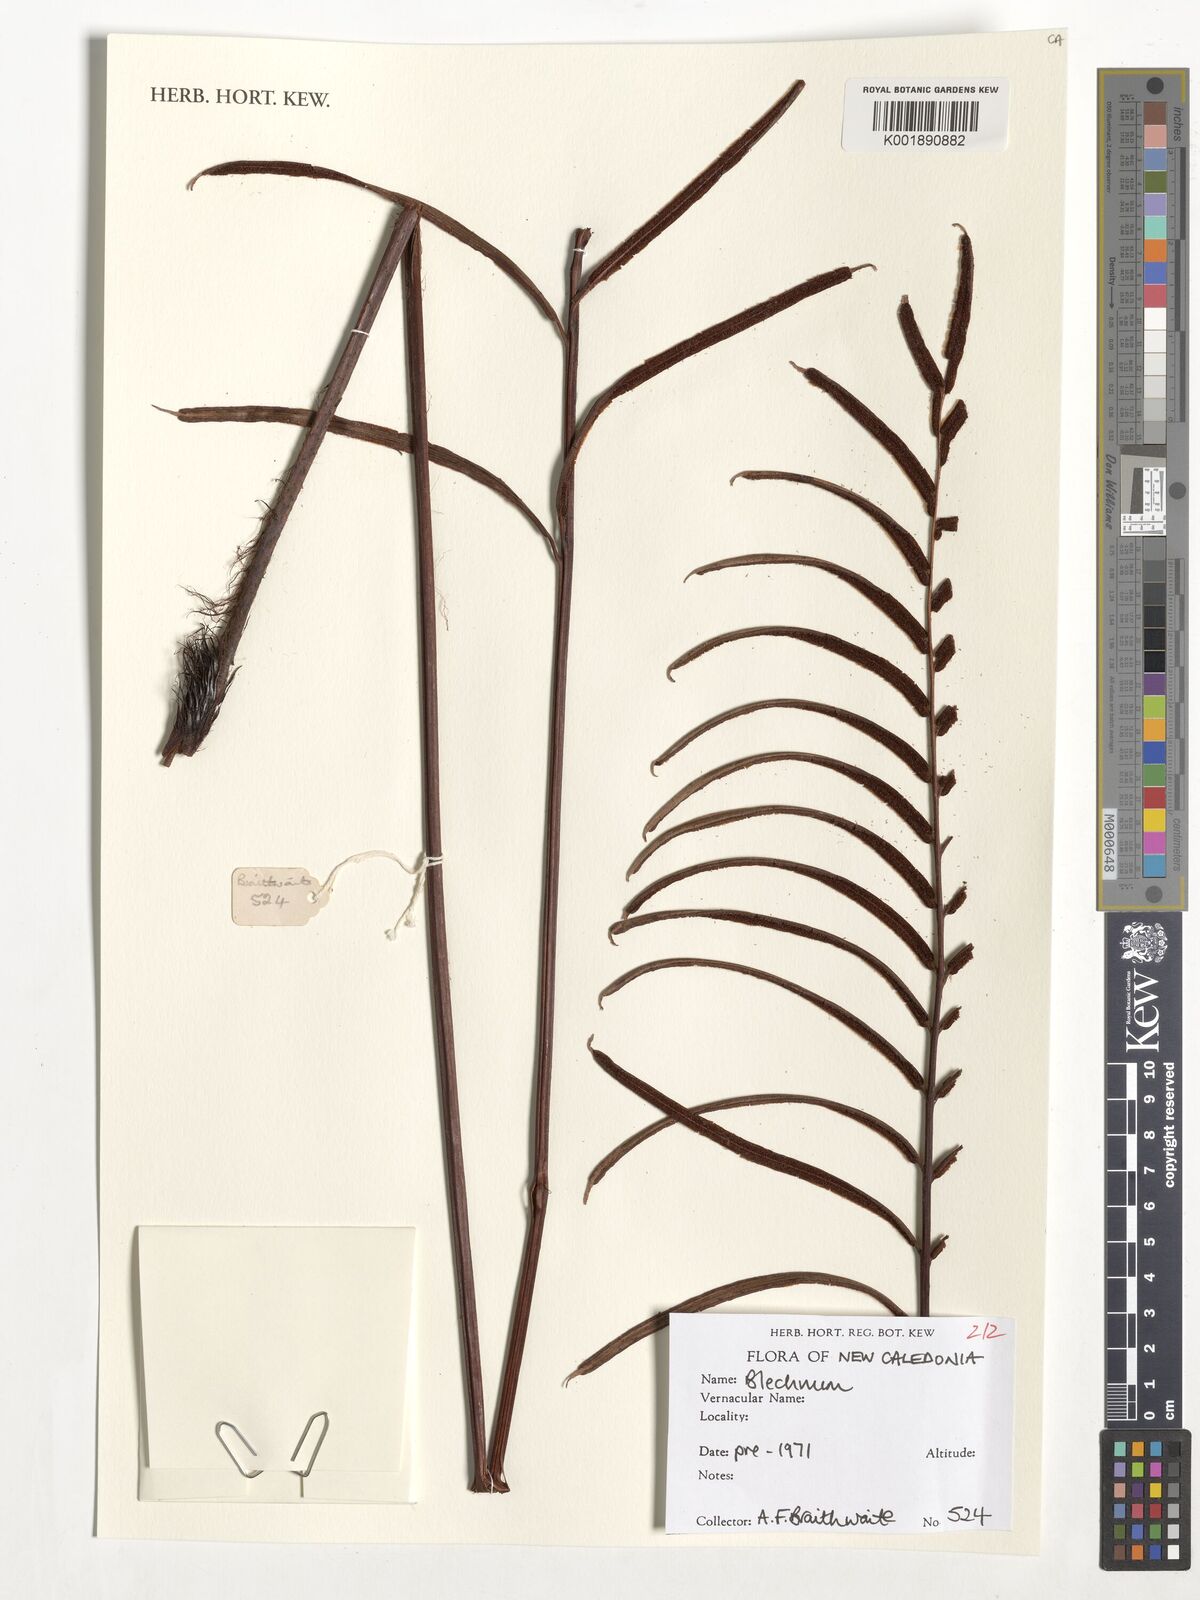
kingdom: Plantae
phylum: Tracheophyta
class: Polypodiopsida
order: Polypodiales
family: Blechnaceae
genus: Blechnum
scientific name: Blechnum
